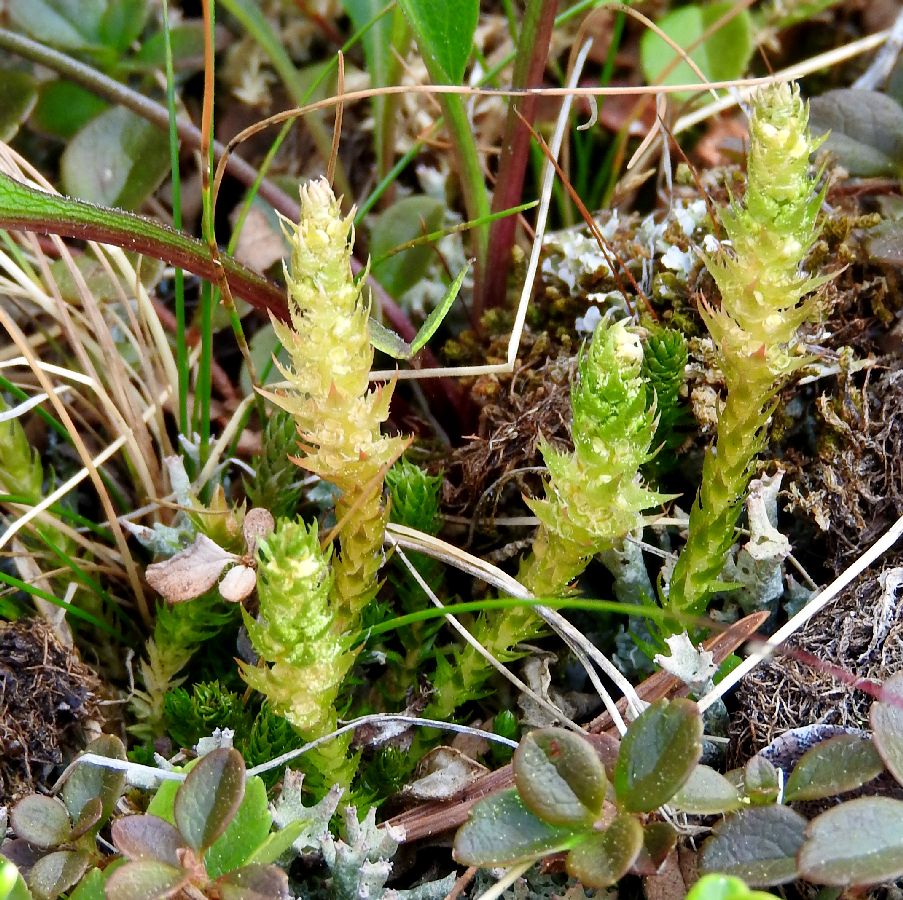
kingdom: Plantae
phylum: Tracheophyta
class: Lycopodiopsida
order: Selaginellales
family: Selaginellaceae
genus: Selaginella
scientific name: Selaginella selaginoides
